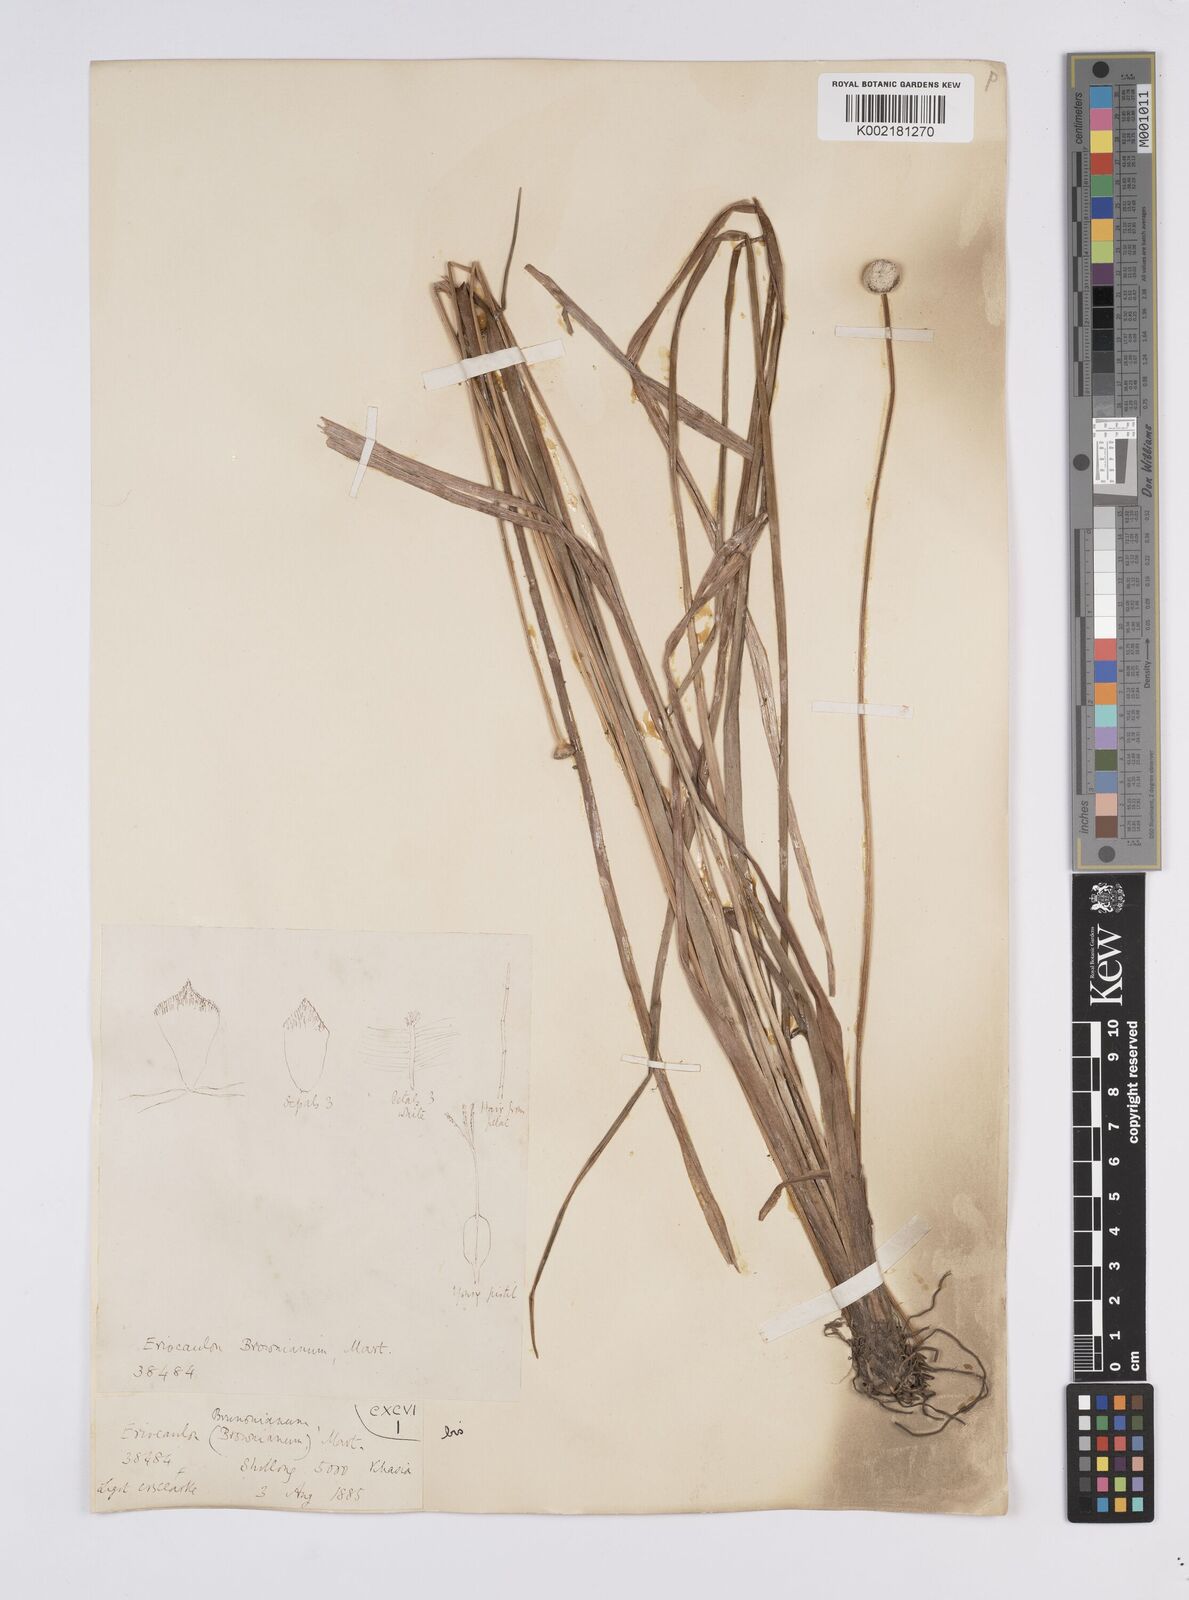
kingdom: Plantae
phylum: Tracheophyta
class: Liliopsida
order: Poales
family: Eriocaulaceae
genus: Eriocaulon
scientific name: Eriocaulon brownianum
